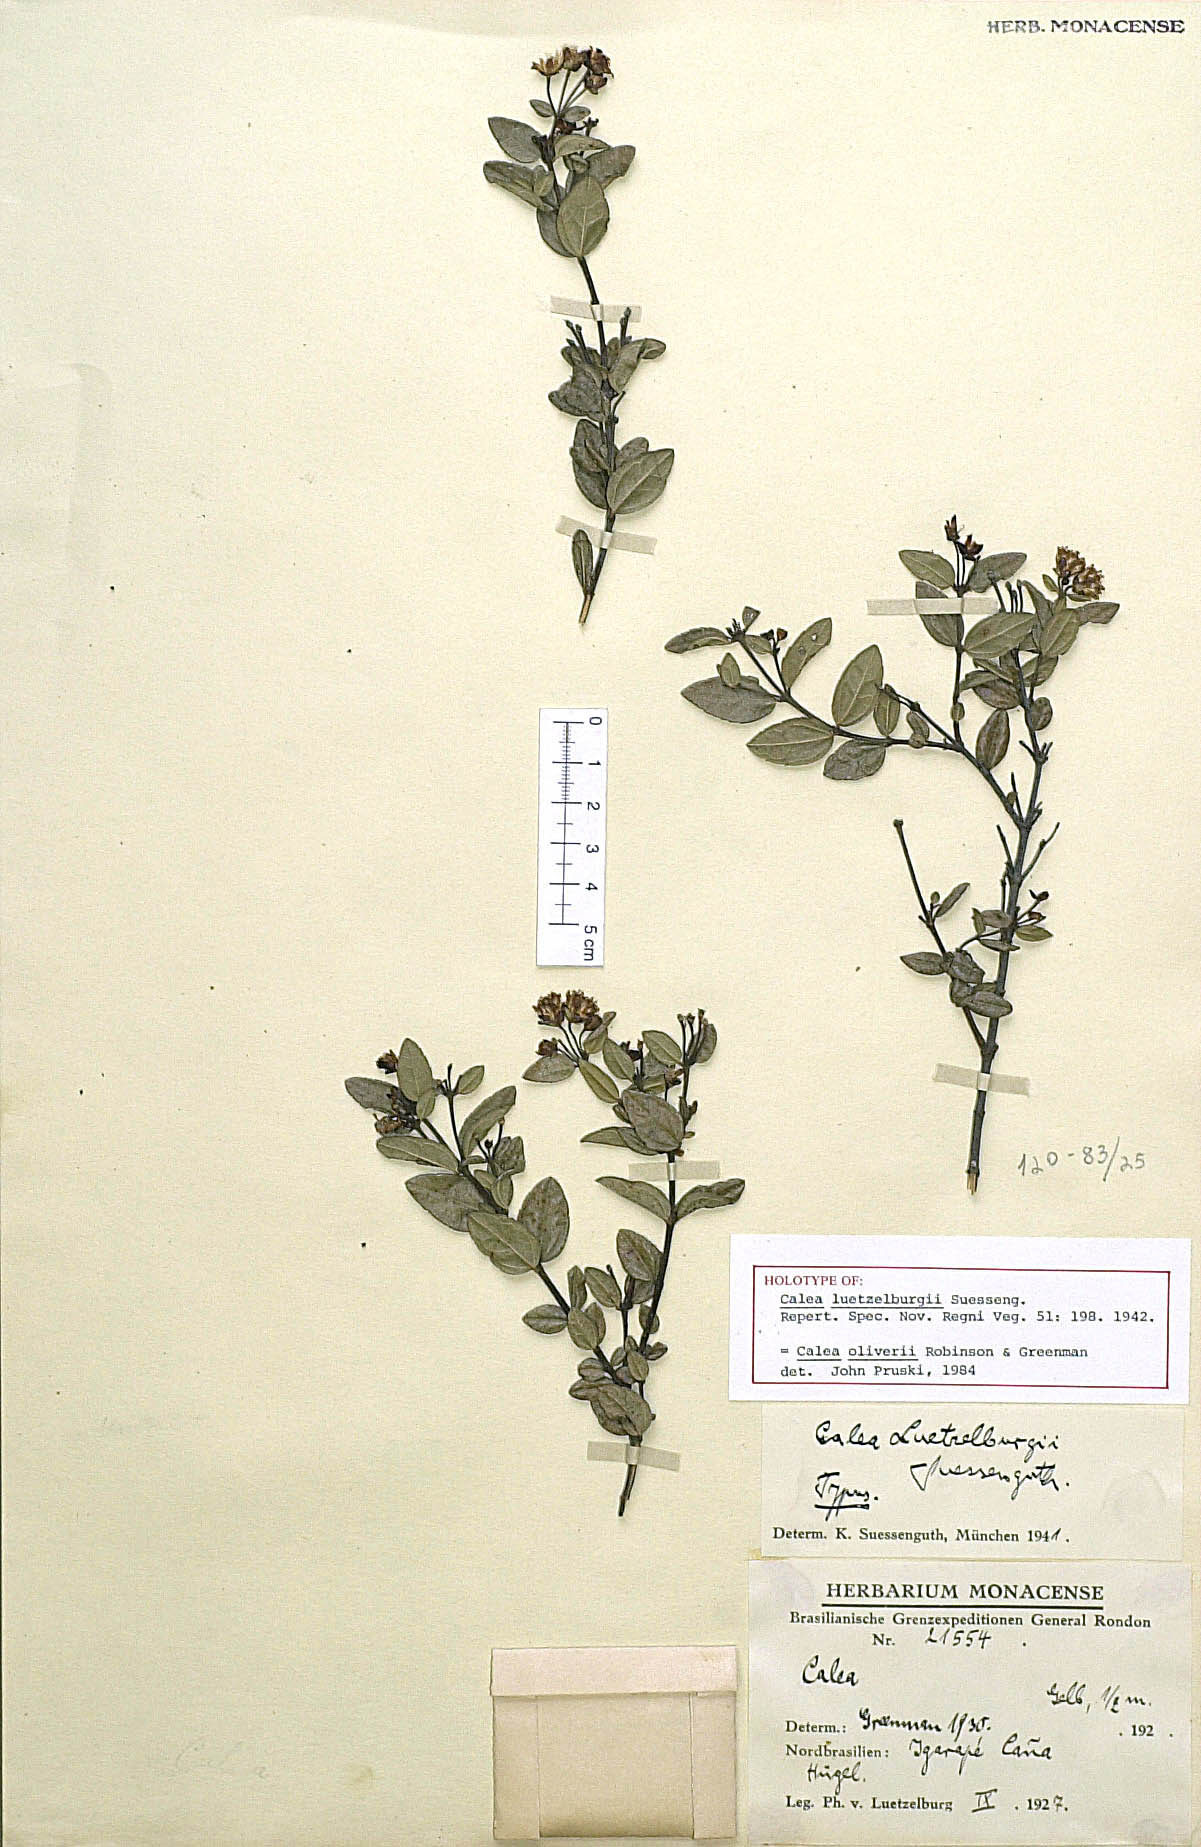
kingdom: Plantae
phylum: Tracheophyta
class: Magnoliopsida
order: Asterales
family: Asteraceae
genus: Calea
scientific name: Calea oliveri
